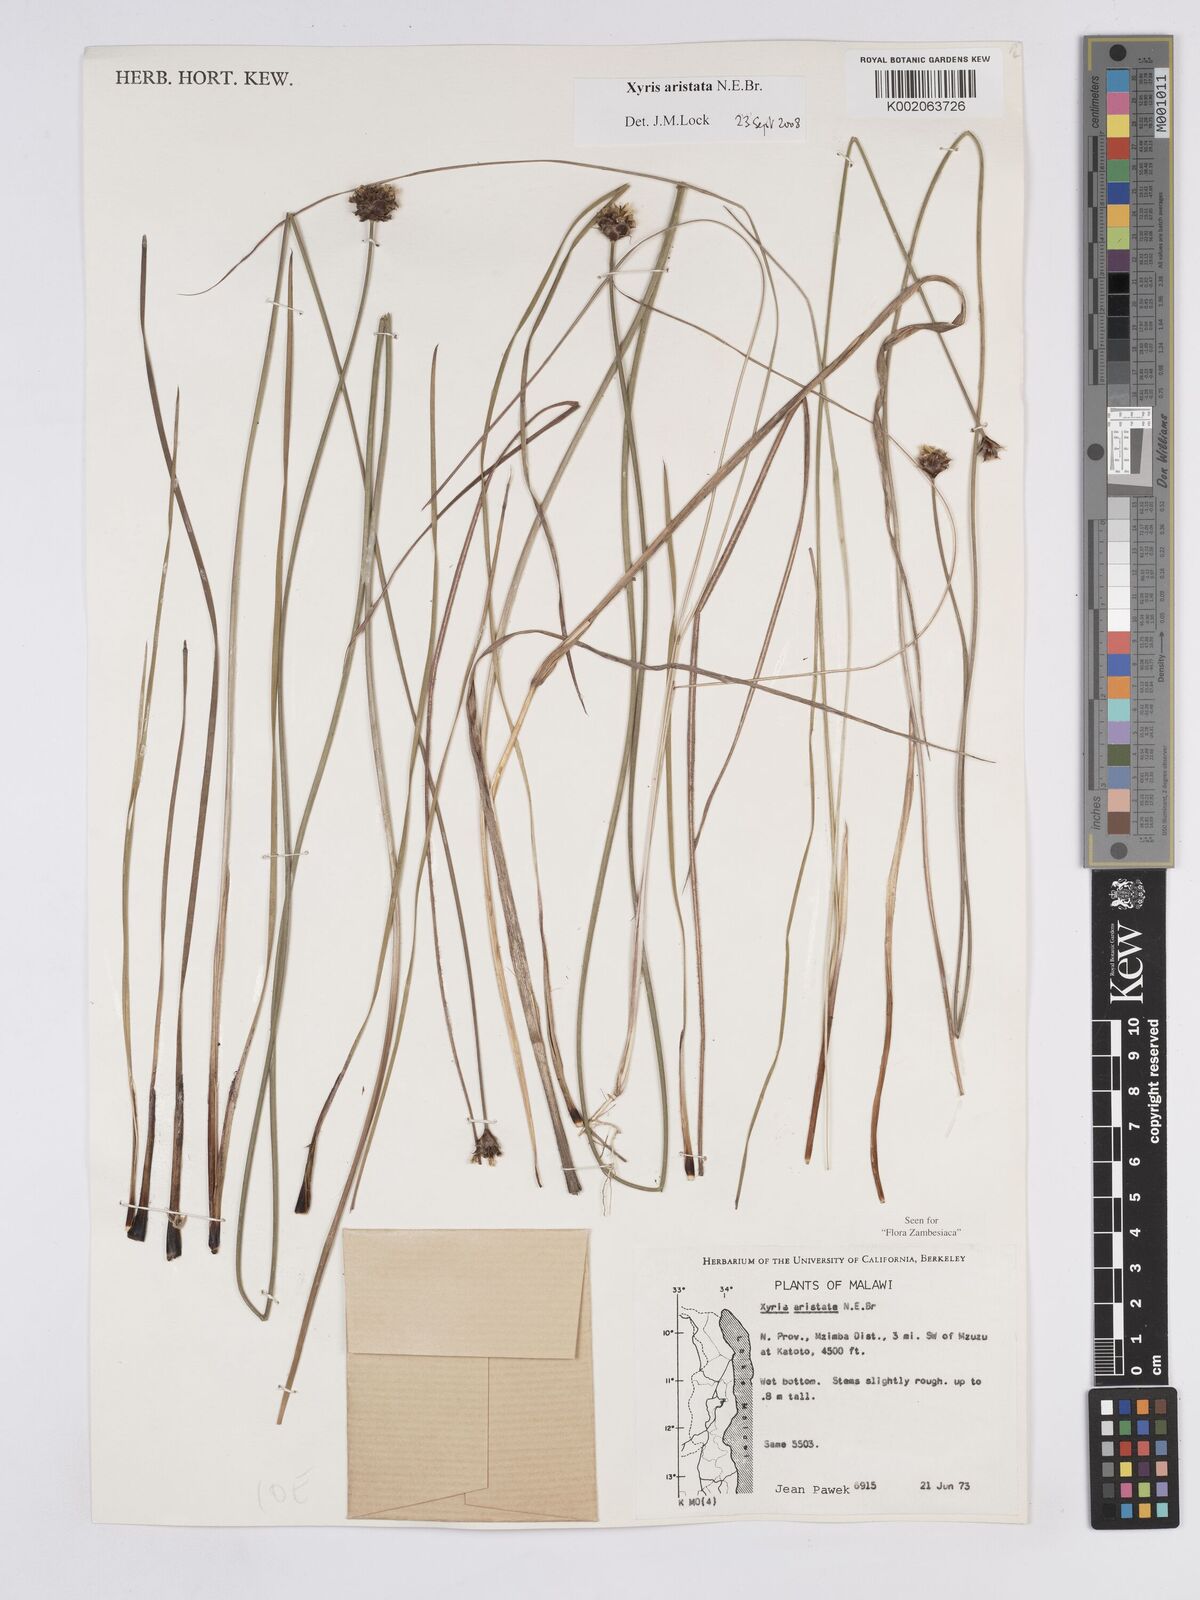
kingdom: Plantae
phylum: Tracheophyta
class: Liliopsida
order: Poales
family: Xyridaceae
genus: Xyris
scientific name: Xyris aristata
